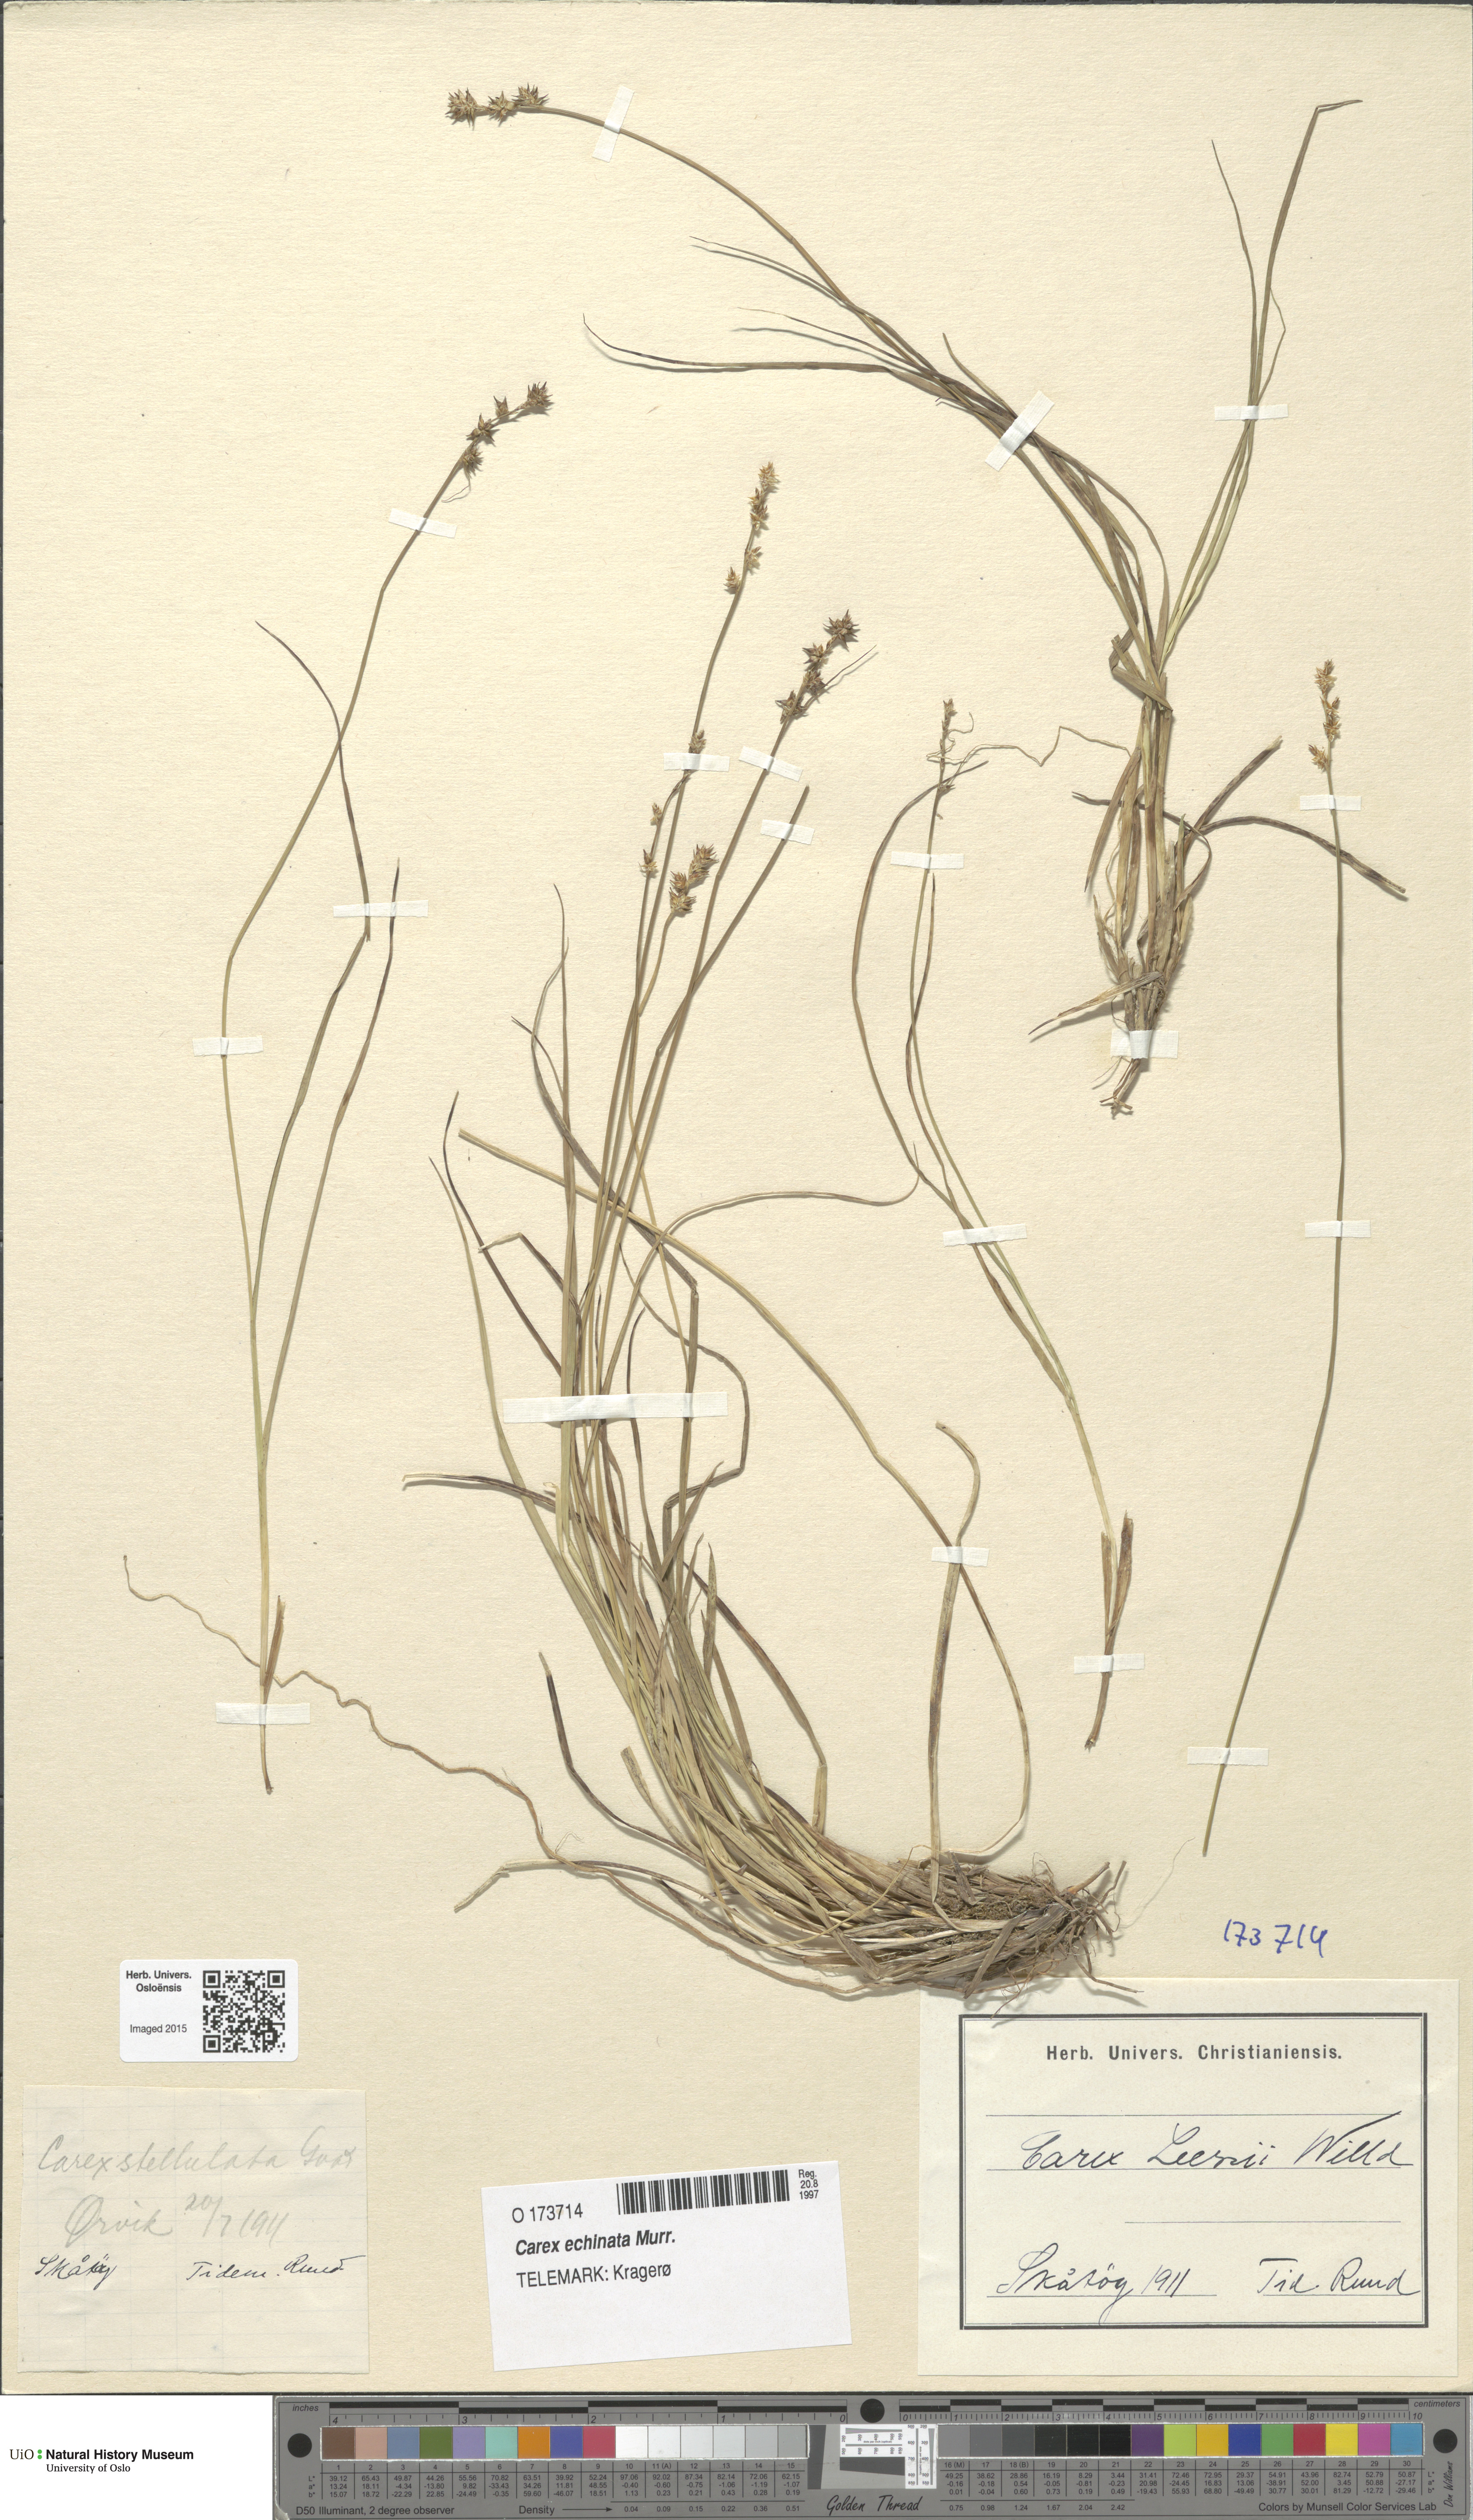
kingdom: Plantae
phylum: Tracheophyta
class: Liliopsida
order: Poales
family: Cyperaceae
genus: Carex
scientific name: Carex echinata
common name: Star sedge
